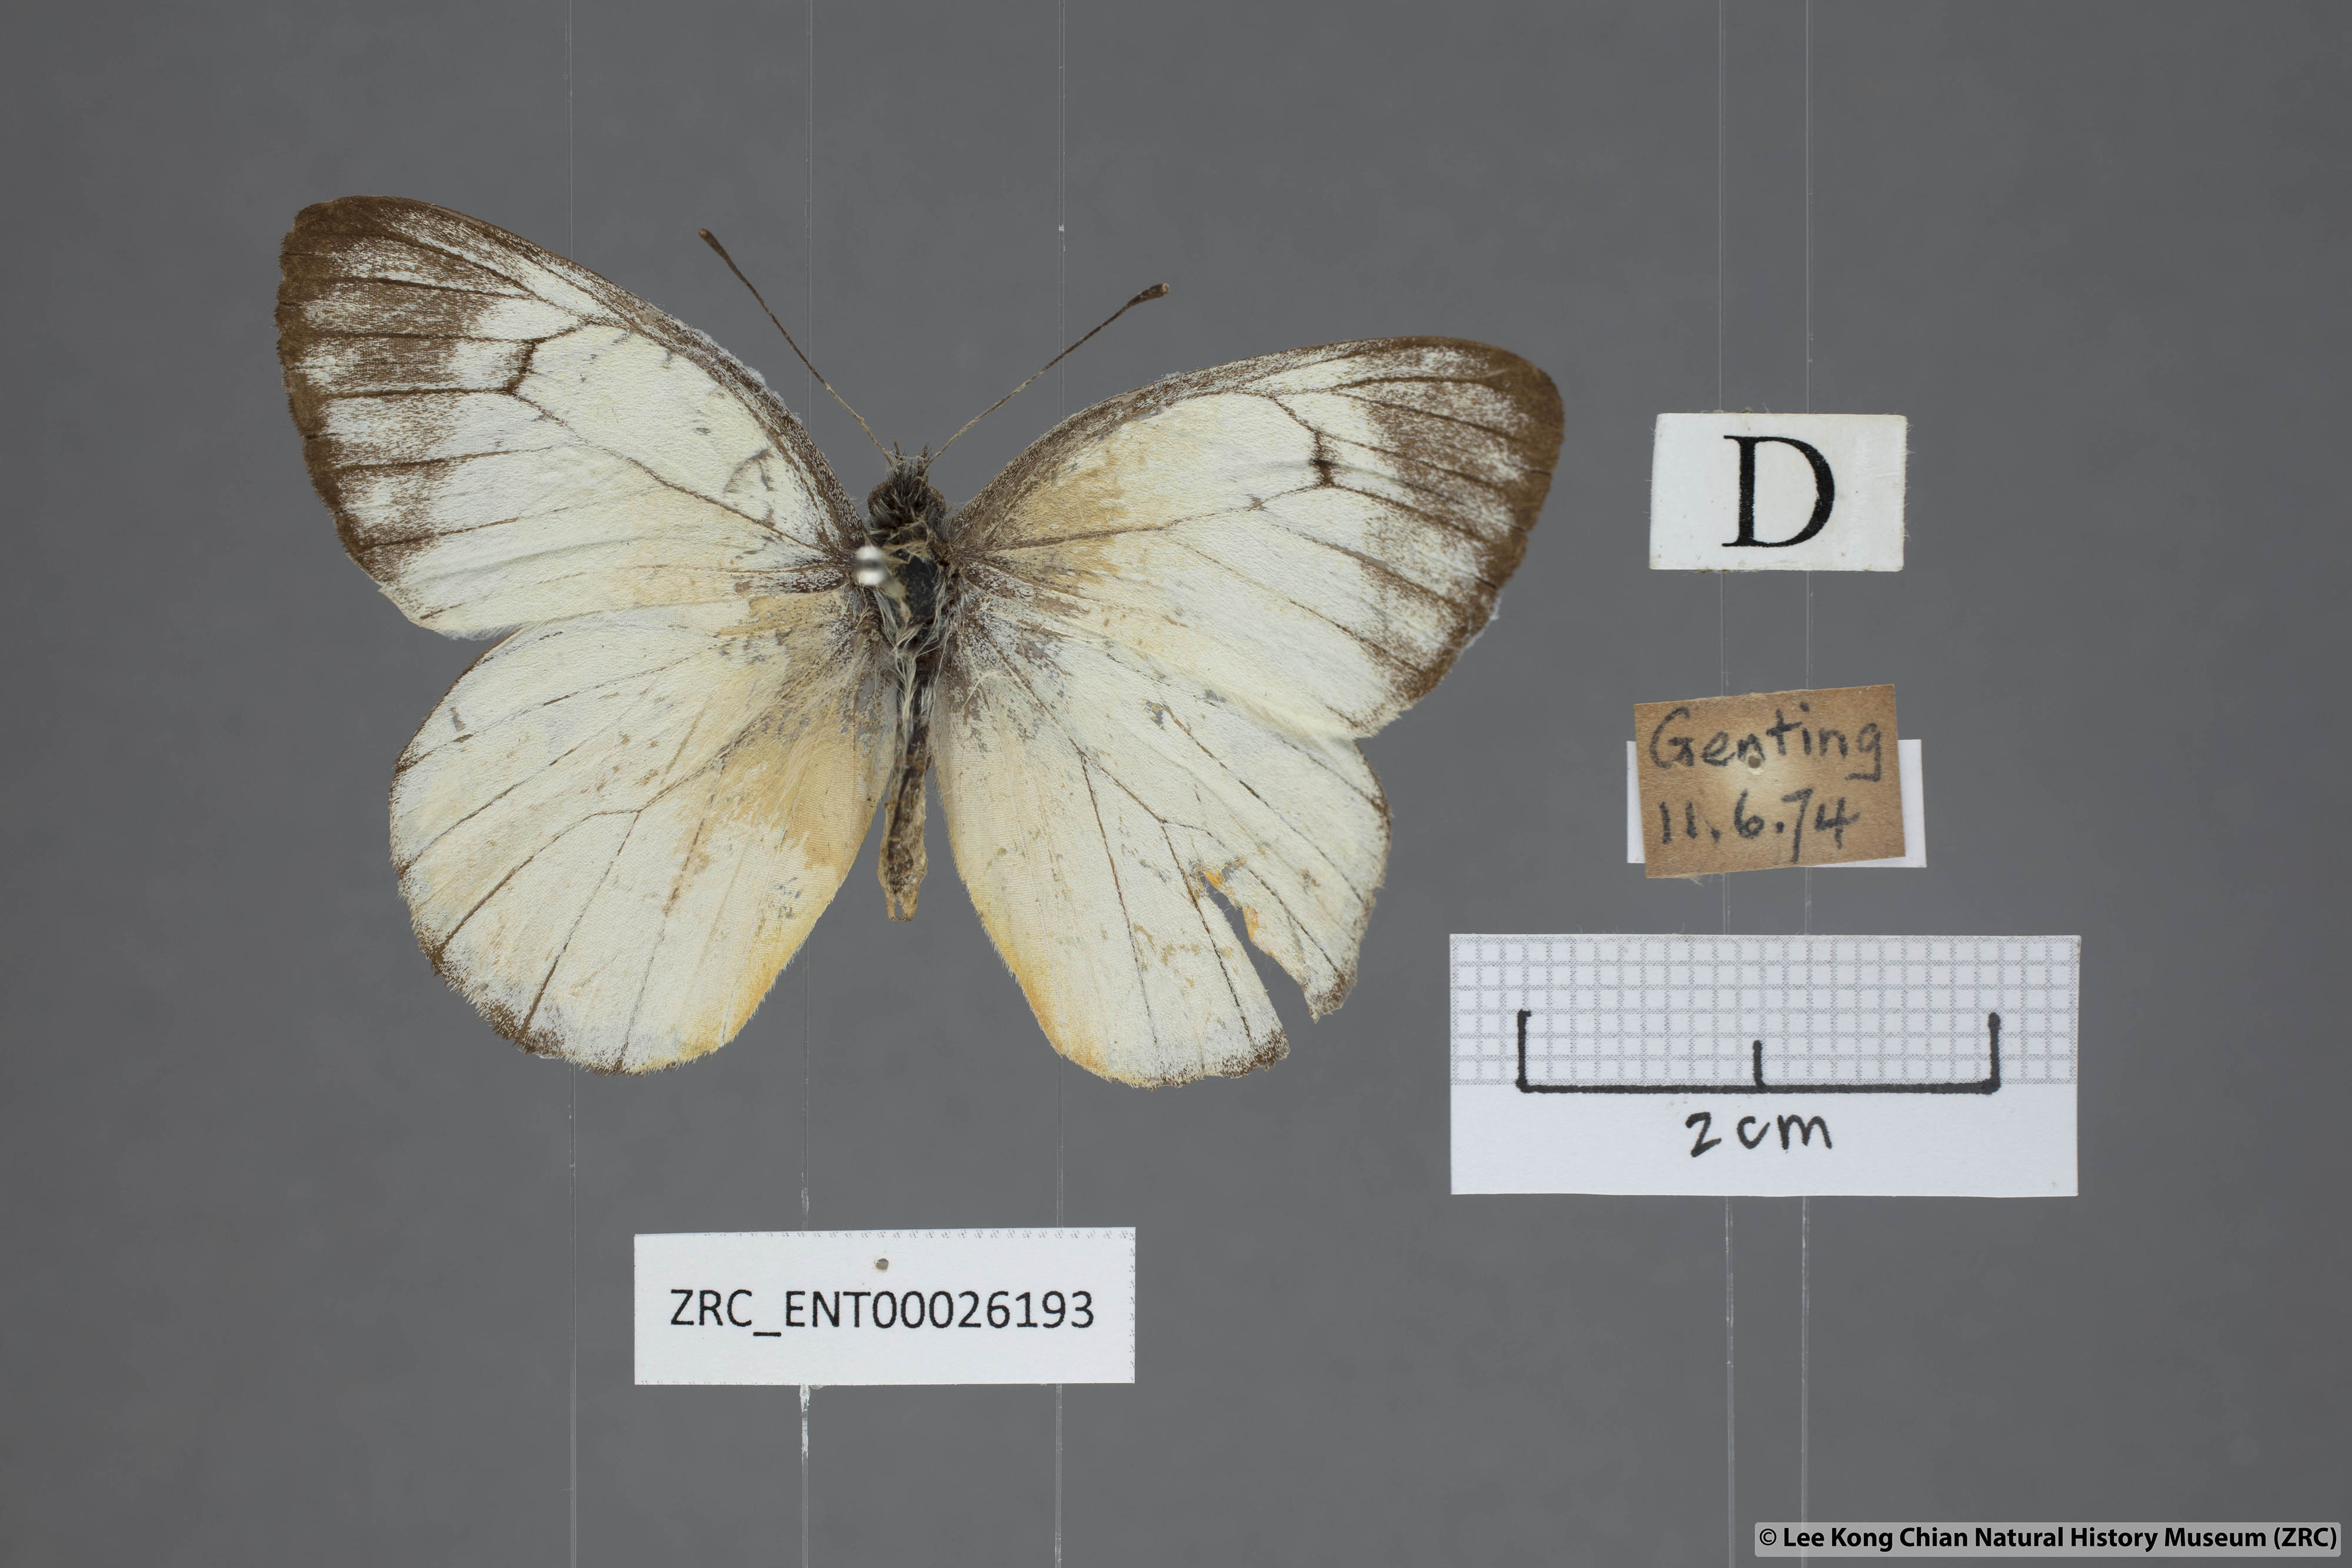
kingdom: Animalia
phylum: Arthropoda
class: Insecta
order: Lepidoptera
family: Pieridae
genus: Delias
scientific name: Delias georgina
